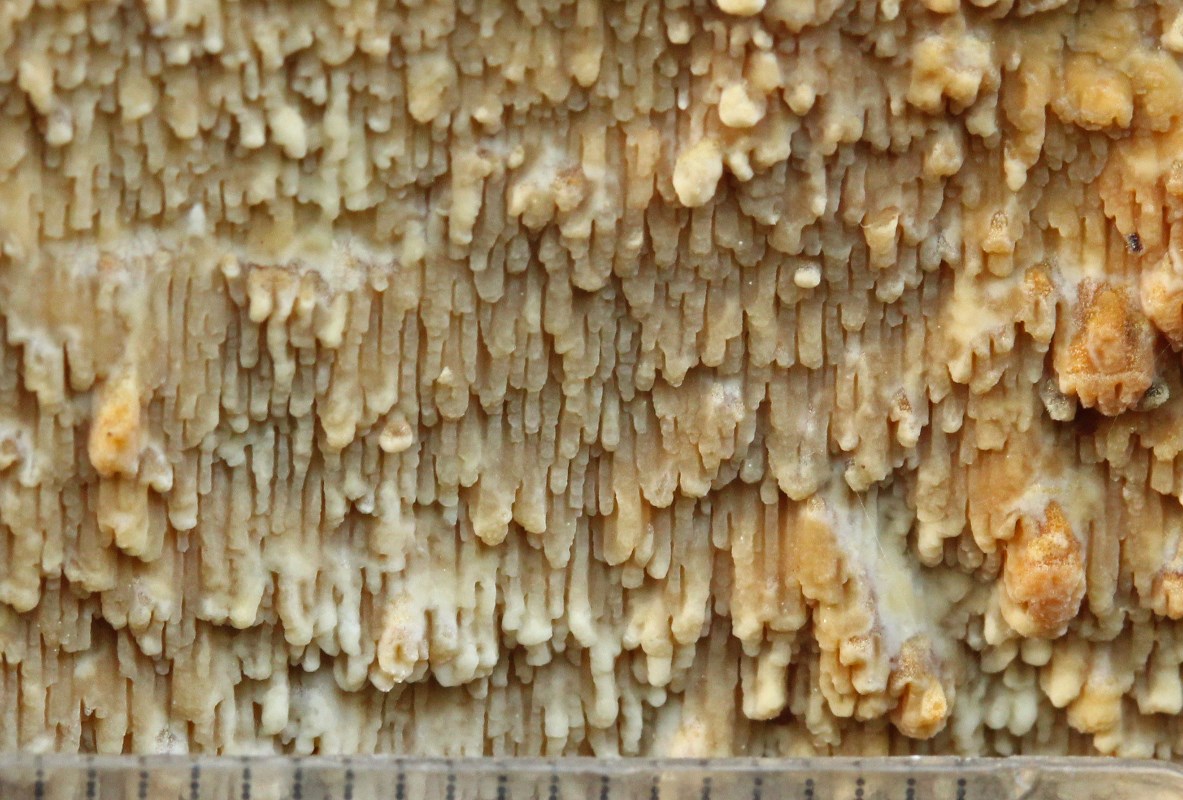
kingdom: Fungi
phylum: Basidiomycota
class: Agaricomycetes
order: Polyporales
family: Meruliaceae
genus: Phlebia
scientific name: Phlebia rufa
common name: ege-åresvamp
